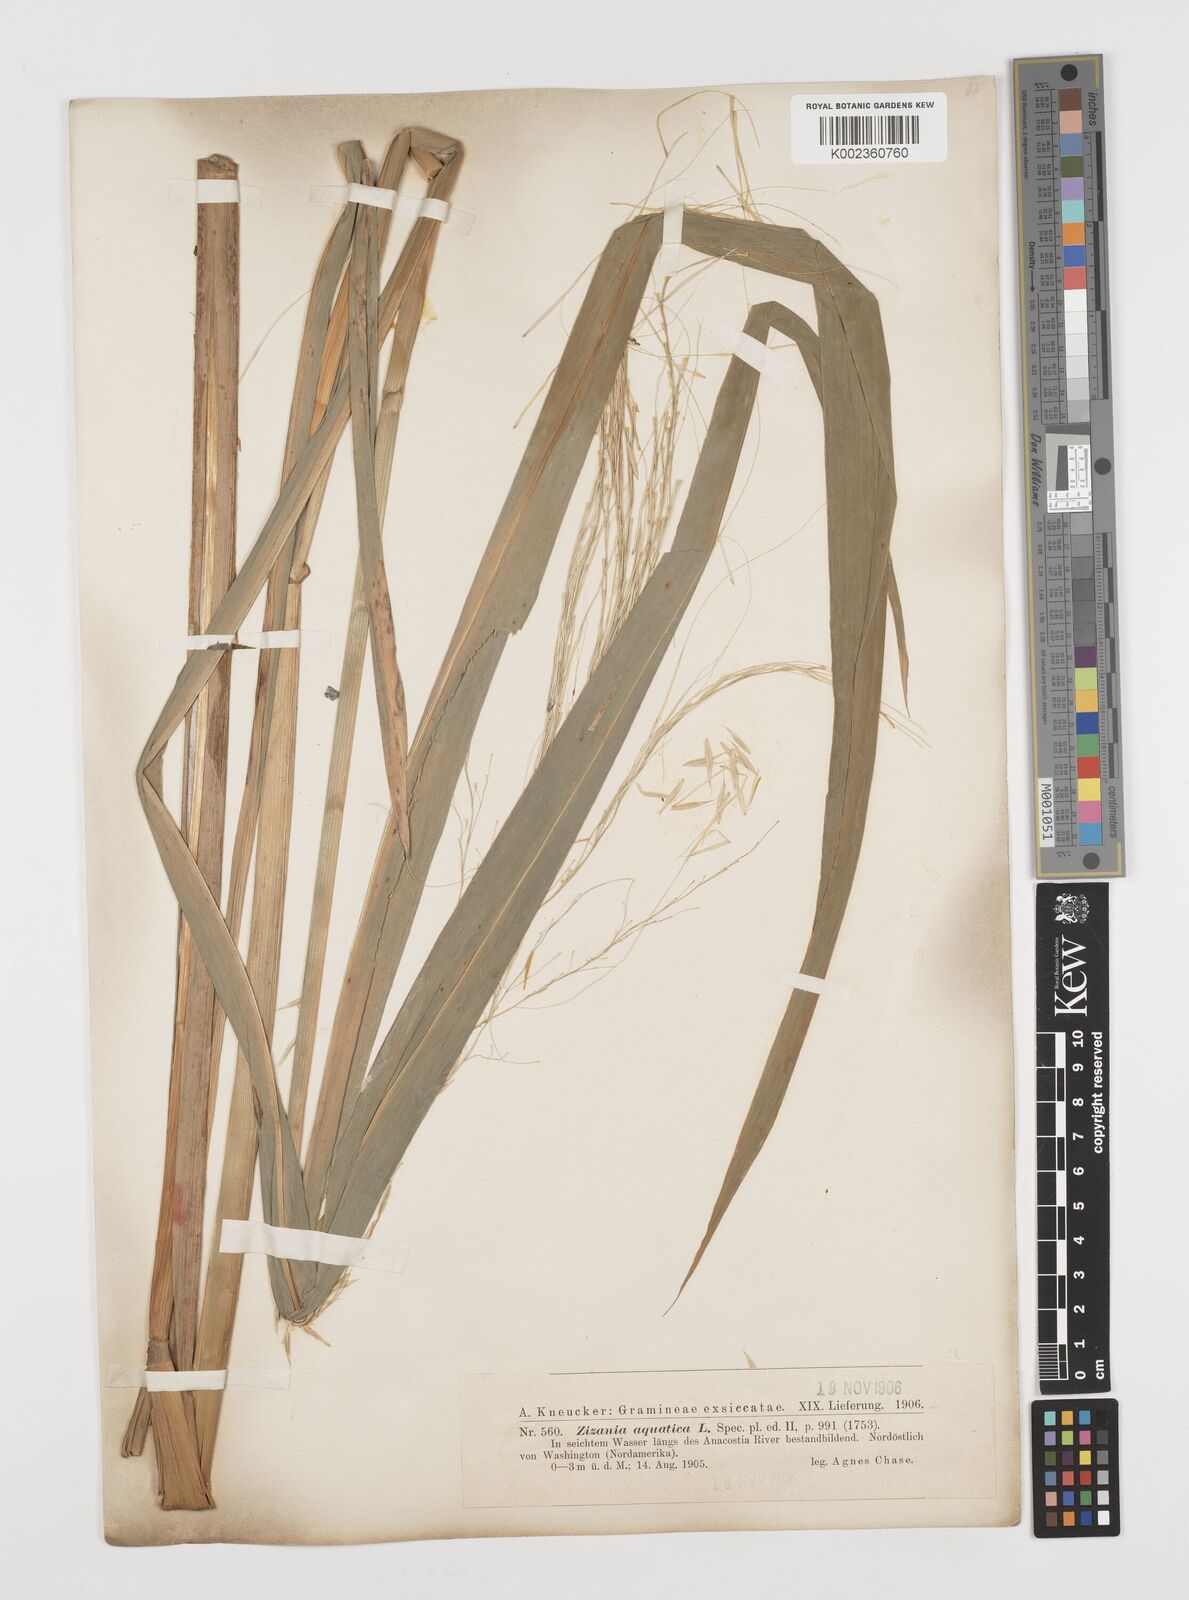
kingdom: Plantae
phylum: Tracheophyta
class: Liliopsida
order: Poales
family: Poaceae
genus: Zizania
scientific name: Zizania aquatica
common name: Annual wildrice
